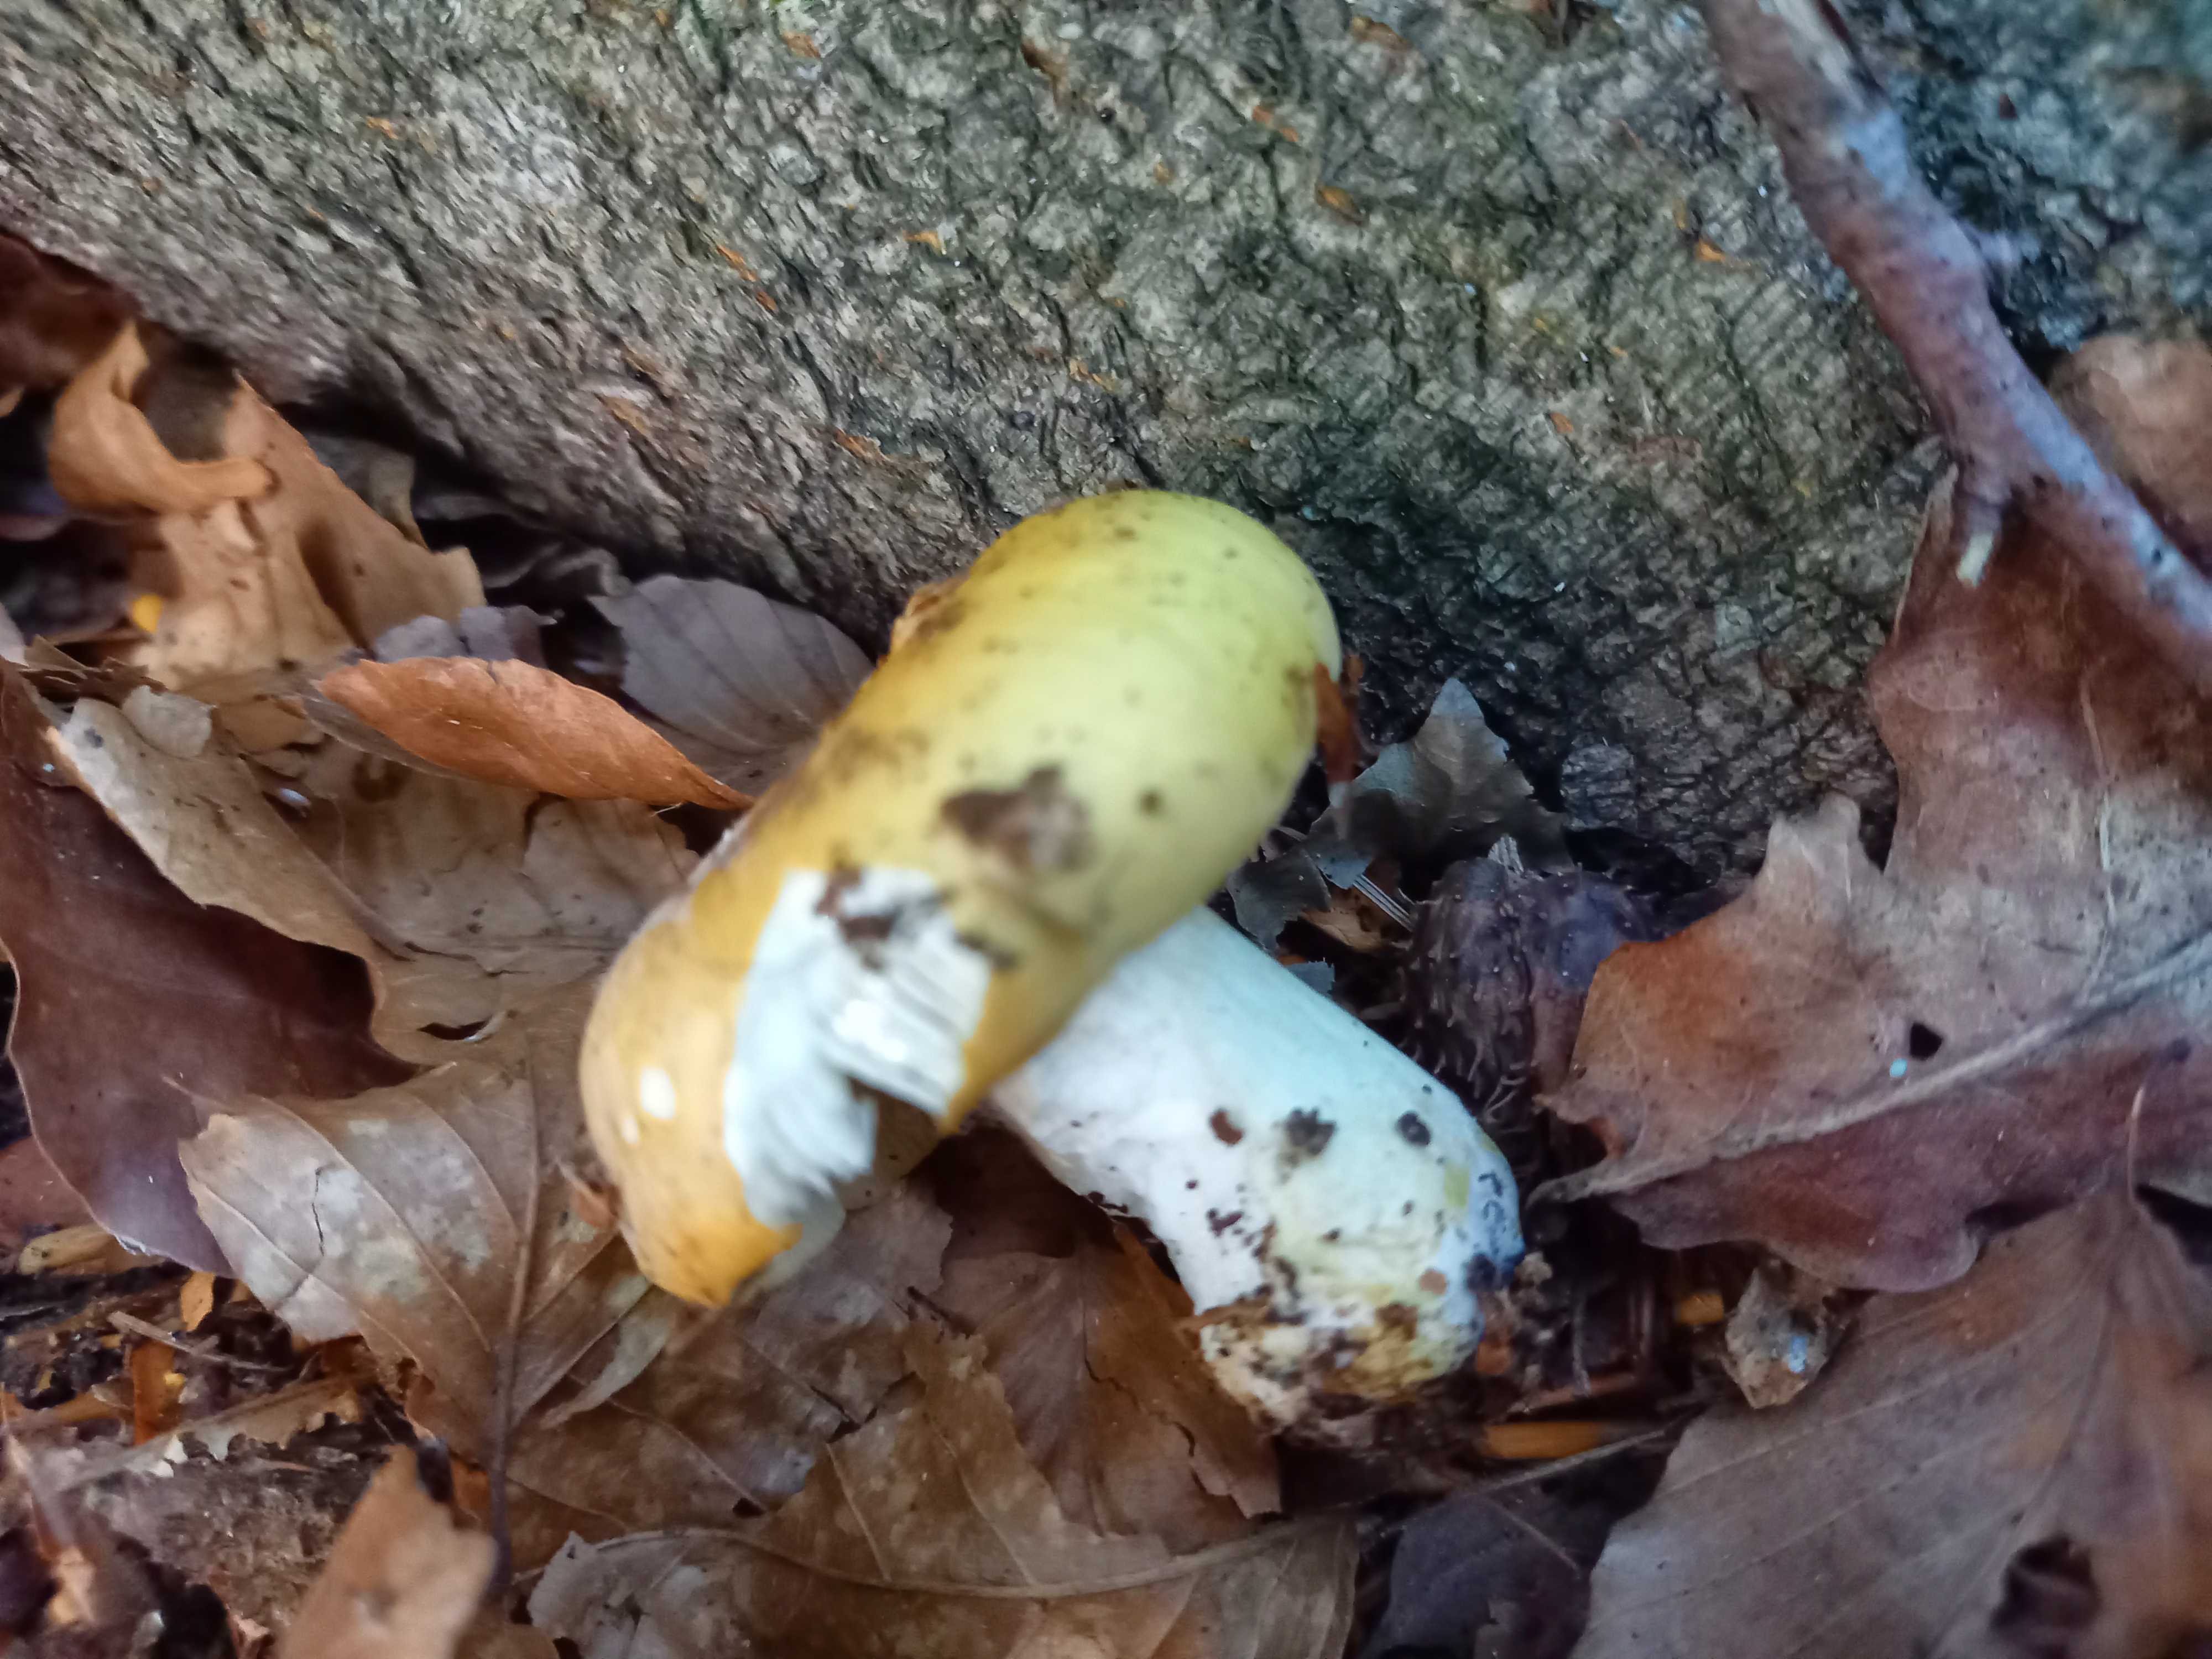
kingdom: Fungi
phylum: Basidiomycota
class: Agaricomycetes
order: Russulales
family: Russulaceae
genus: Russula
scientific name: Russula ochroleuca
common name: okkergul skørhat
